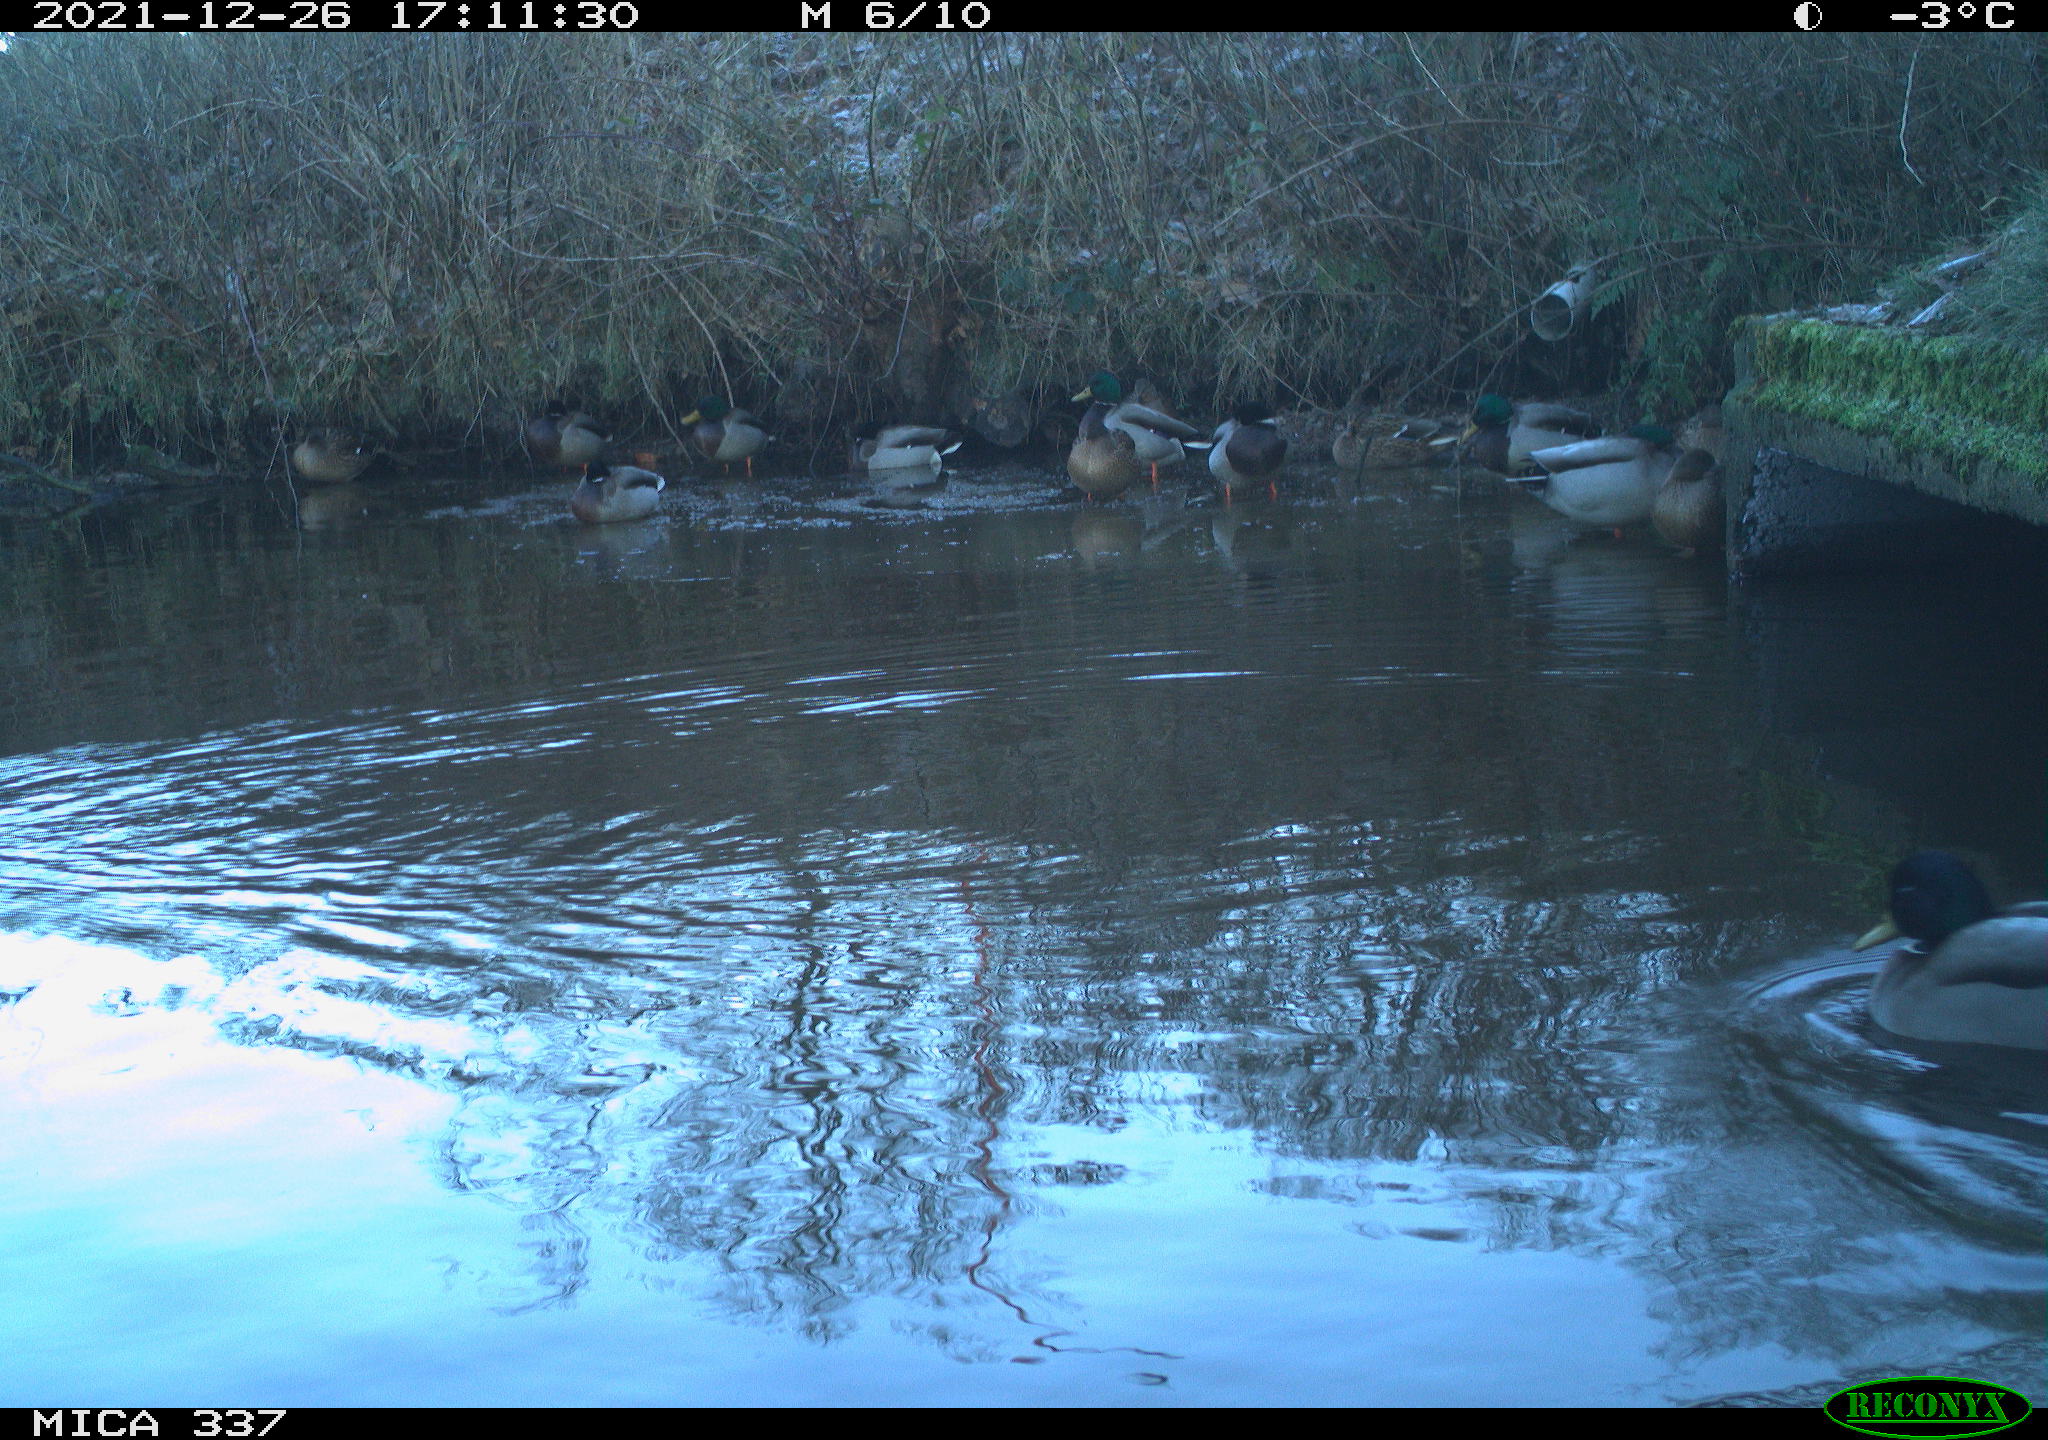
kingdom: Animalia
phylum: Chordata
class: Aves
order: Anseriformes
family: Anatidae
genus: Anas
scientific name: Anas platyrhynchos
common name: Mallard
